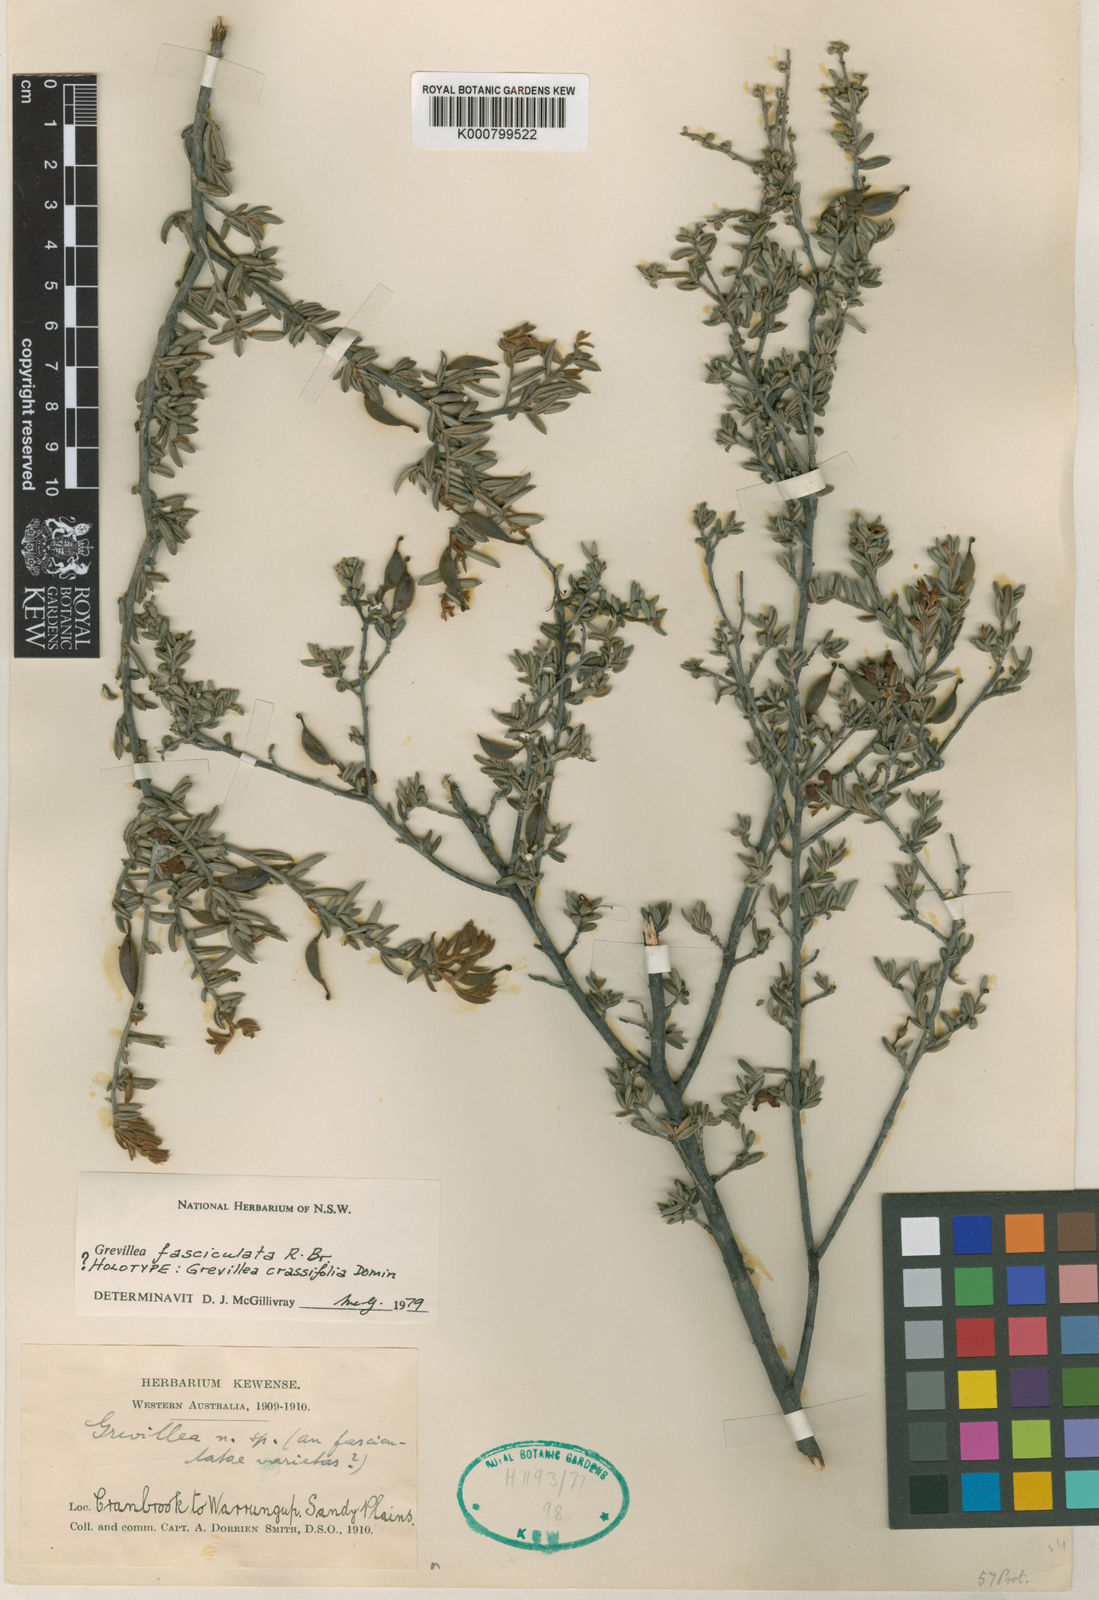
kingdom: Plantae
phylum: Tracheophyta
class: Magnoliopsida
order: Proteales
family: Proteaceae
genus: Grevillea
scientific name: Grevillea crassifolia
